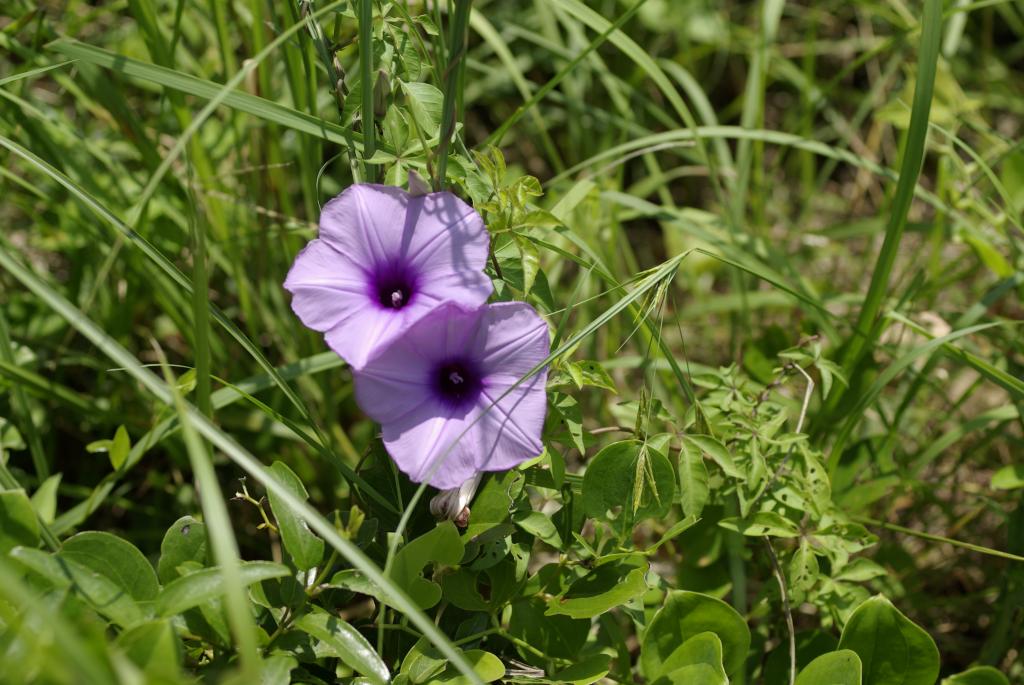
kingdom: Plantae
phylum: Tracheophyta
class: Magnoliopsida
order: Solanales
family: Convolvulaceae
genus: Ipomoea
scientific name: Ipomoea cairica
